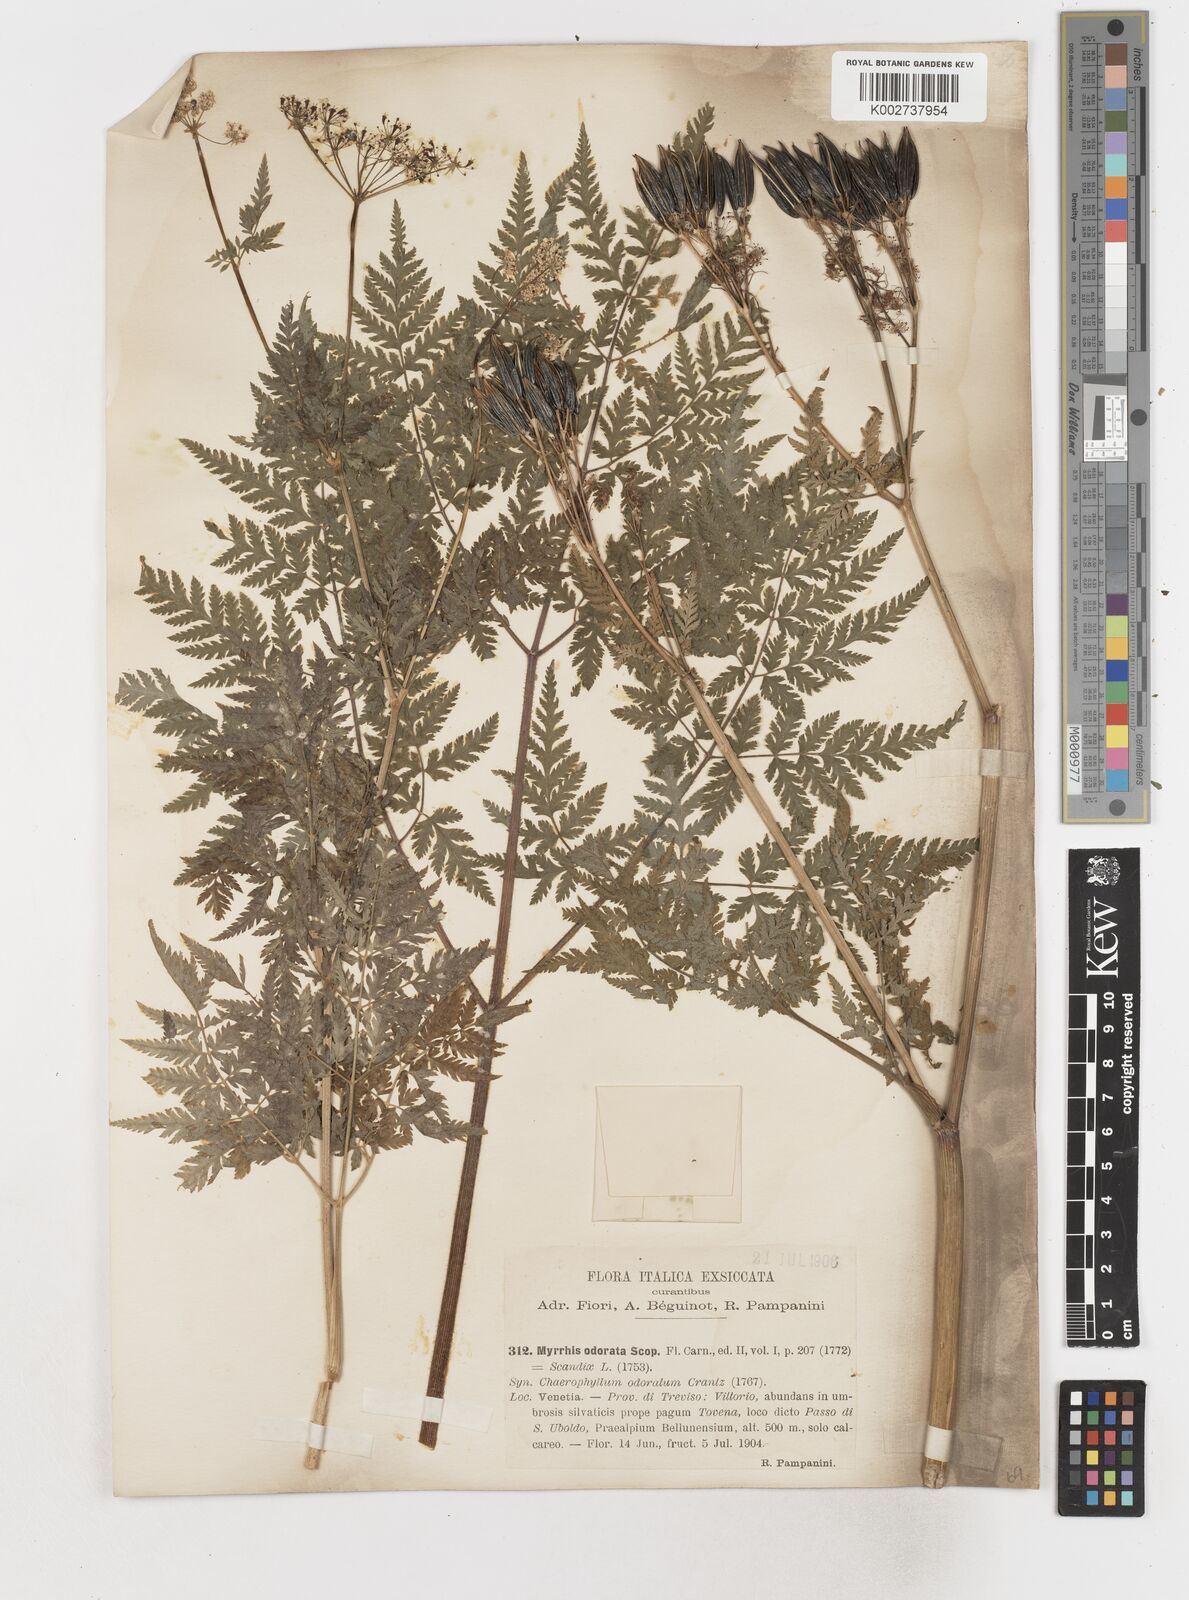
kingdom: Plantae
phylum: Tracheophyta
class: Magnoliopsida
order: Apiales
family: Apiaceae
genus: Myrrhis
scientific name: Myrrhis odorata
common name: Sweet cicely
